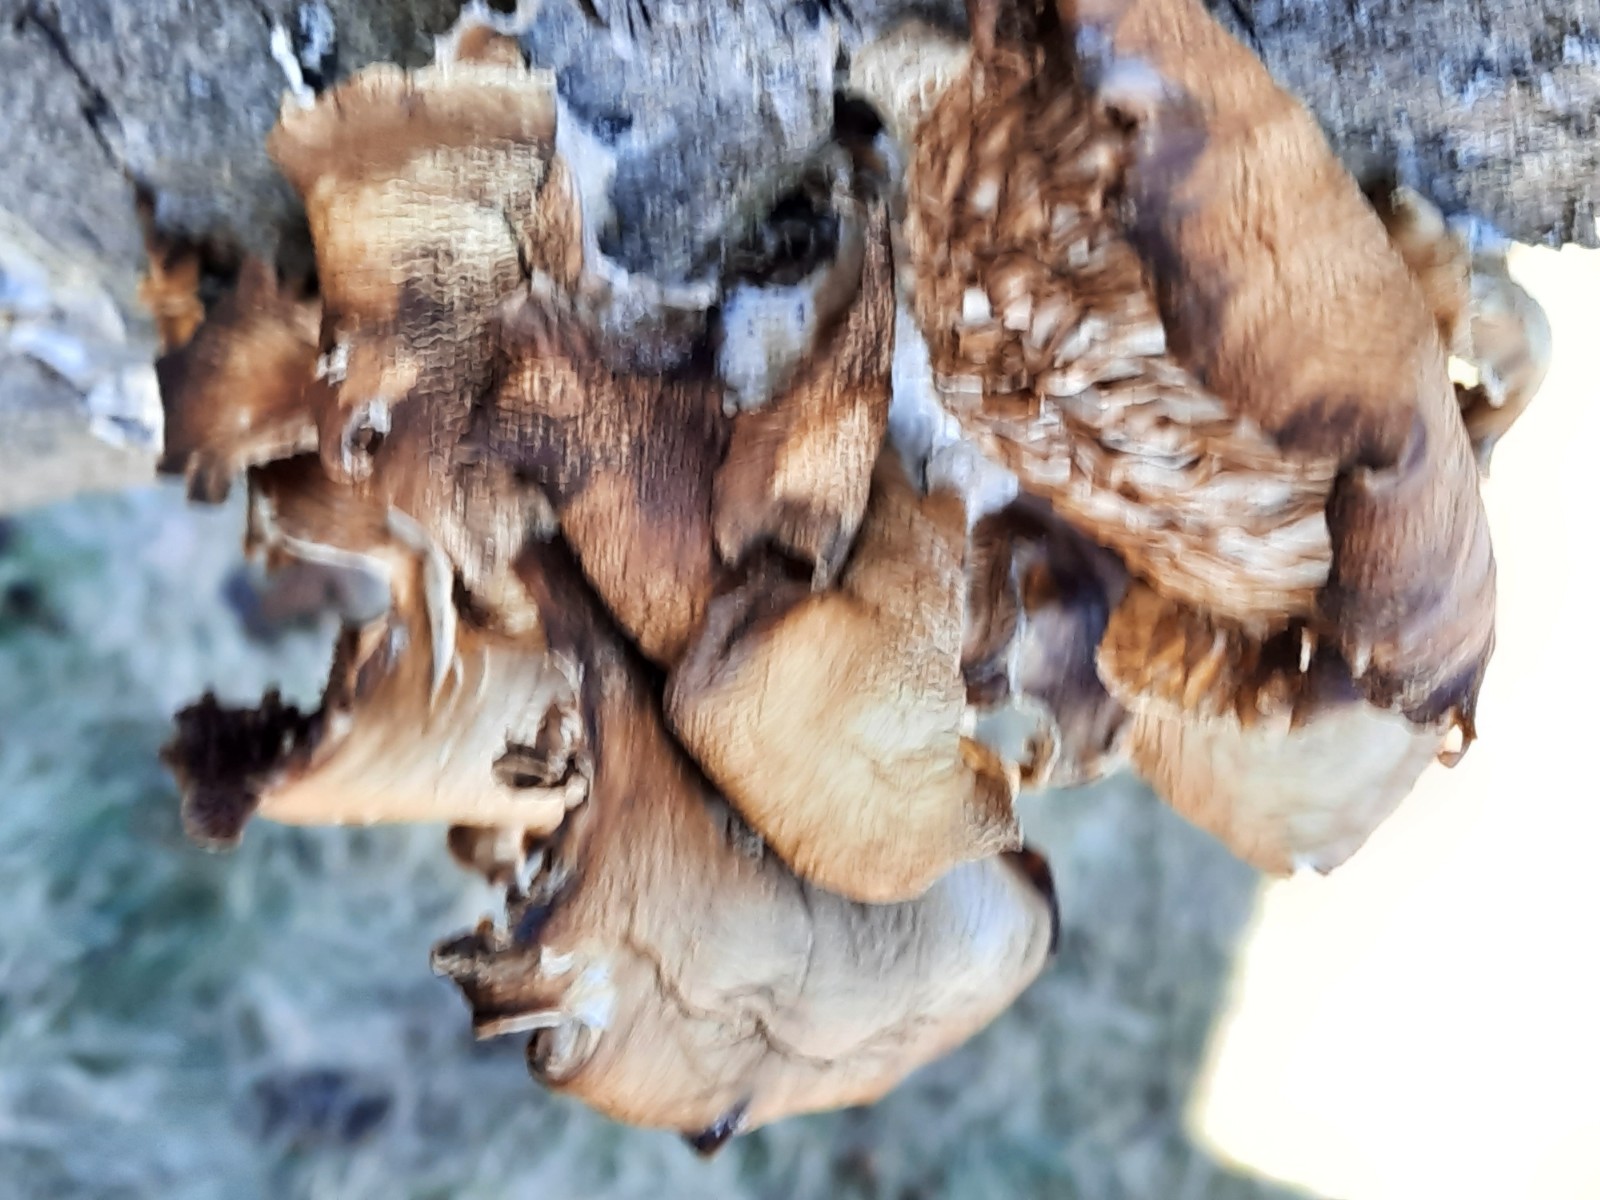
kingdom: Fungi
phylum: Basidiomycota
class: Agaricomycetes
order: Agaricales
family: Pleurotaceae
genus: Pleurotus
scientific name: Pleurotus ostreatus
